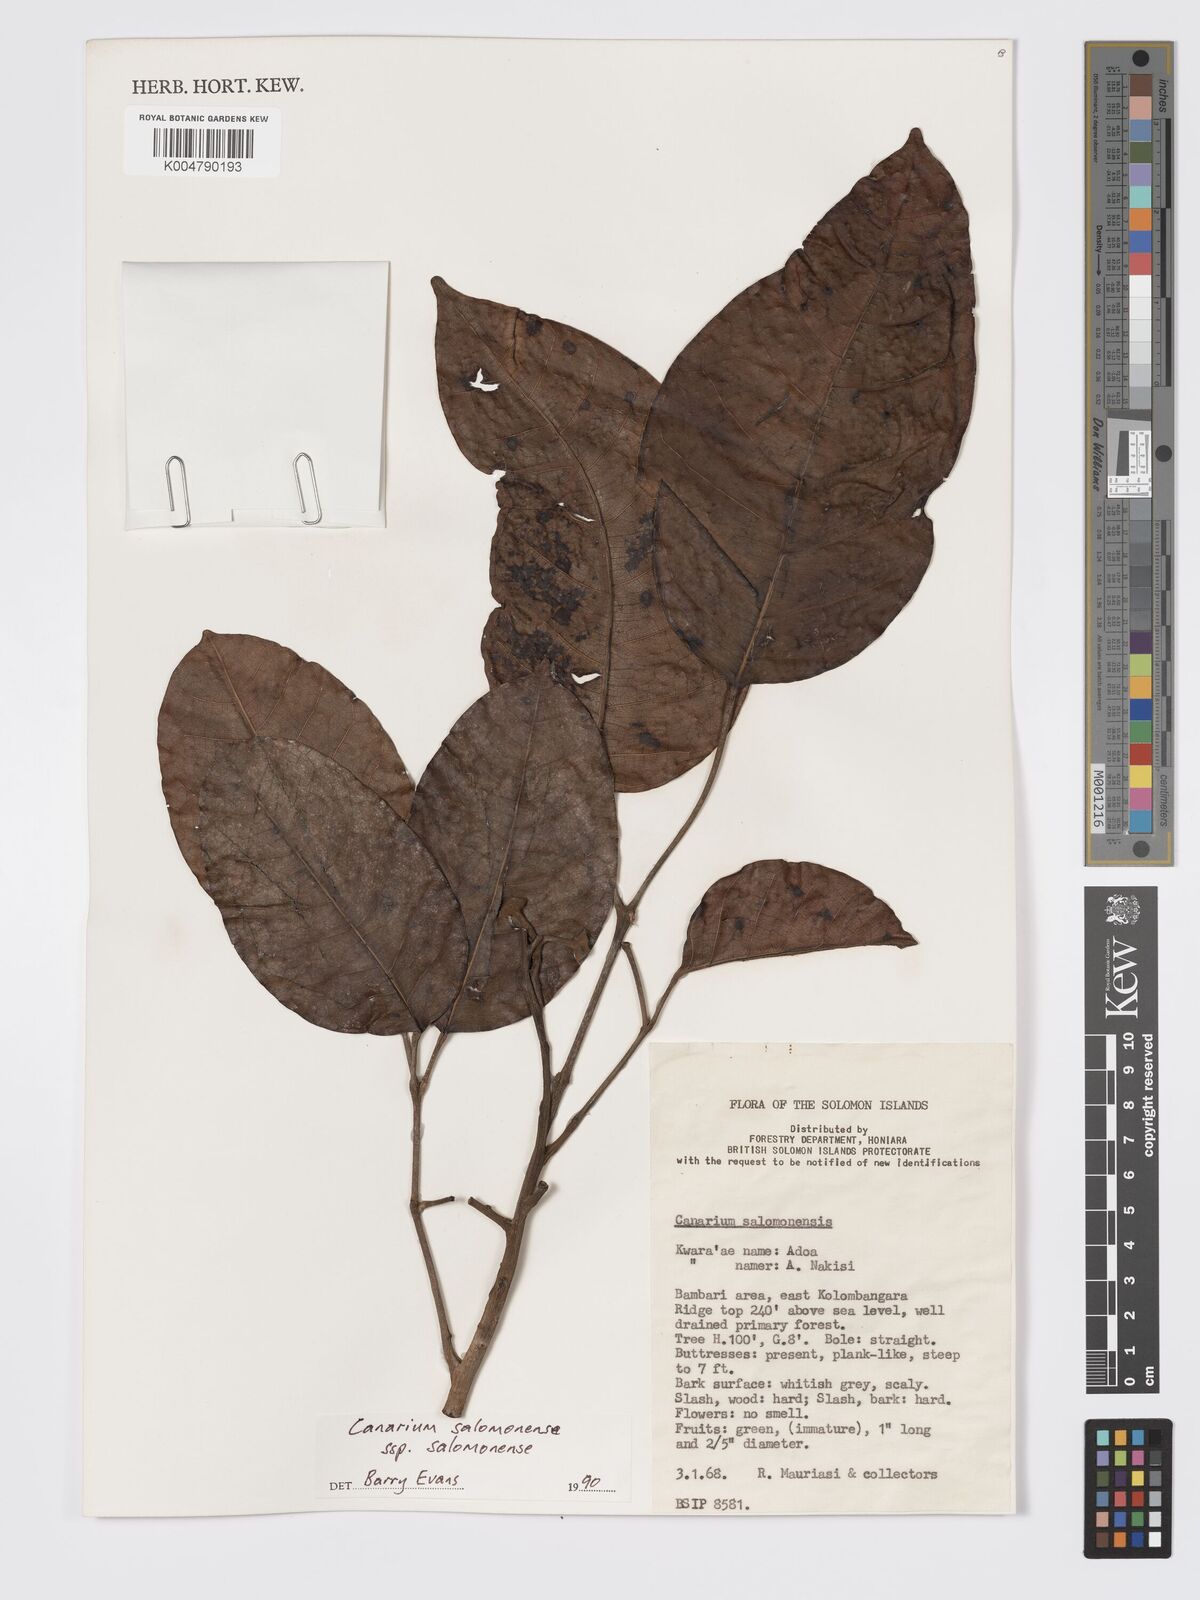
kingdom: Plantae
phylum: Tracheophyta
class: Magnoliopsida
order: Sapindales
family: Burseraceae
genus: Canarium
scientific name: Canarium salomonense
